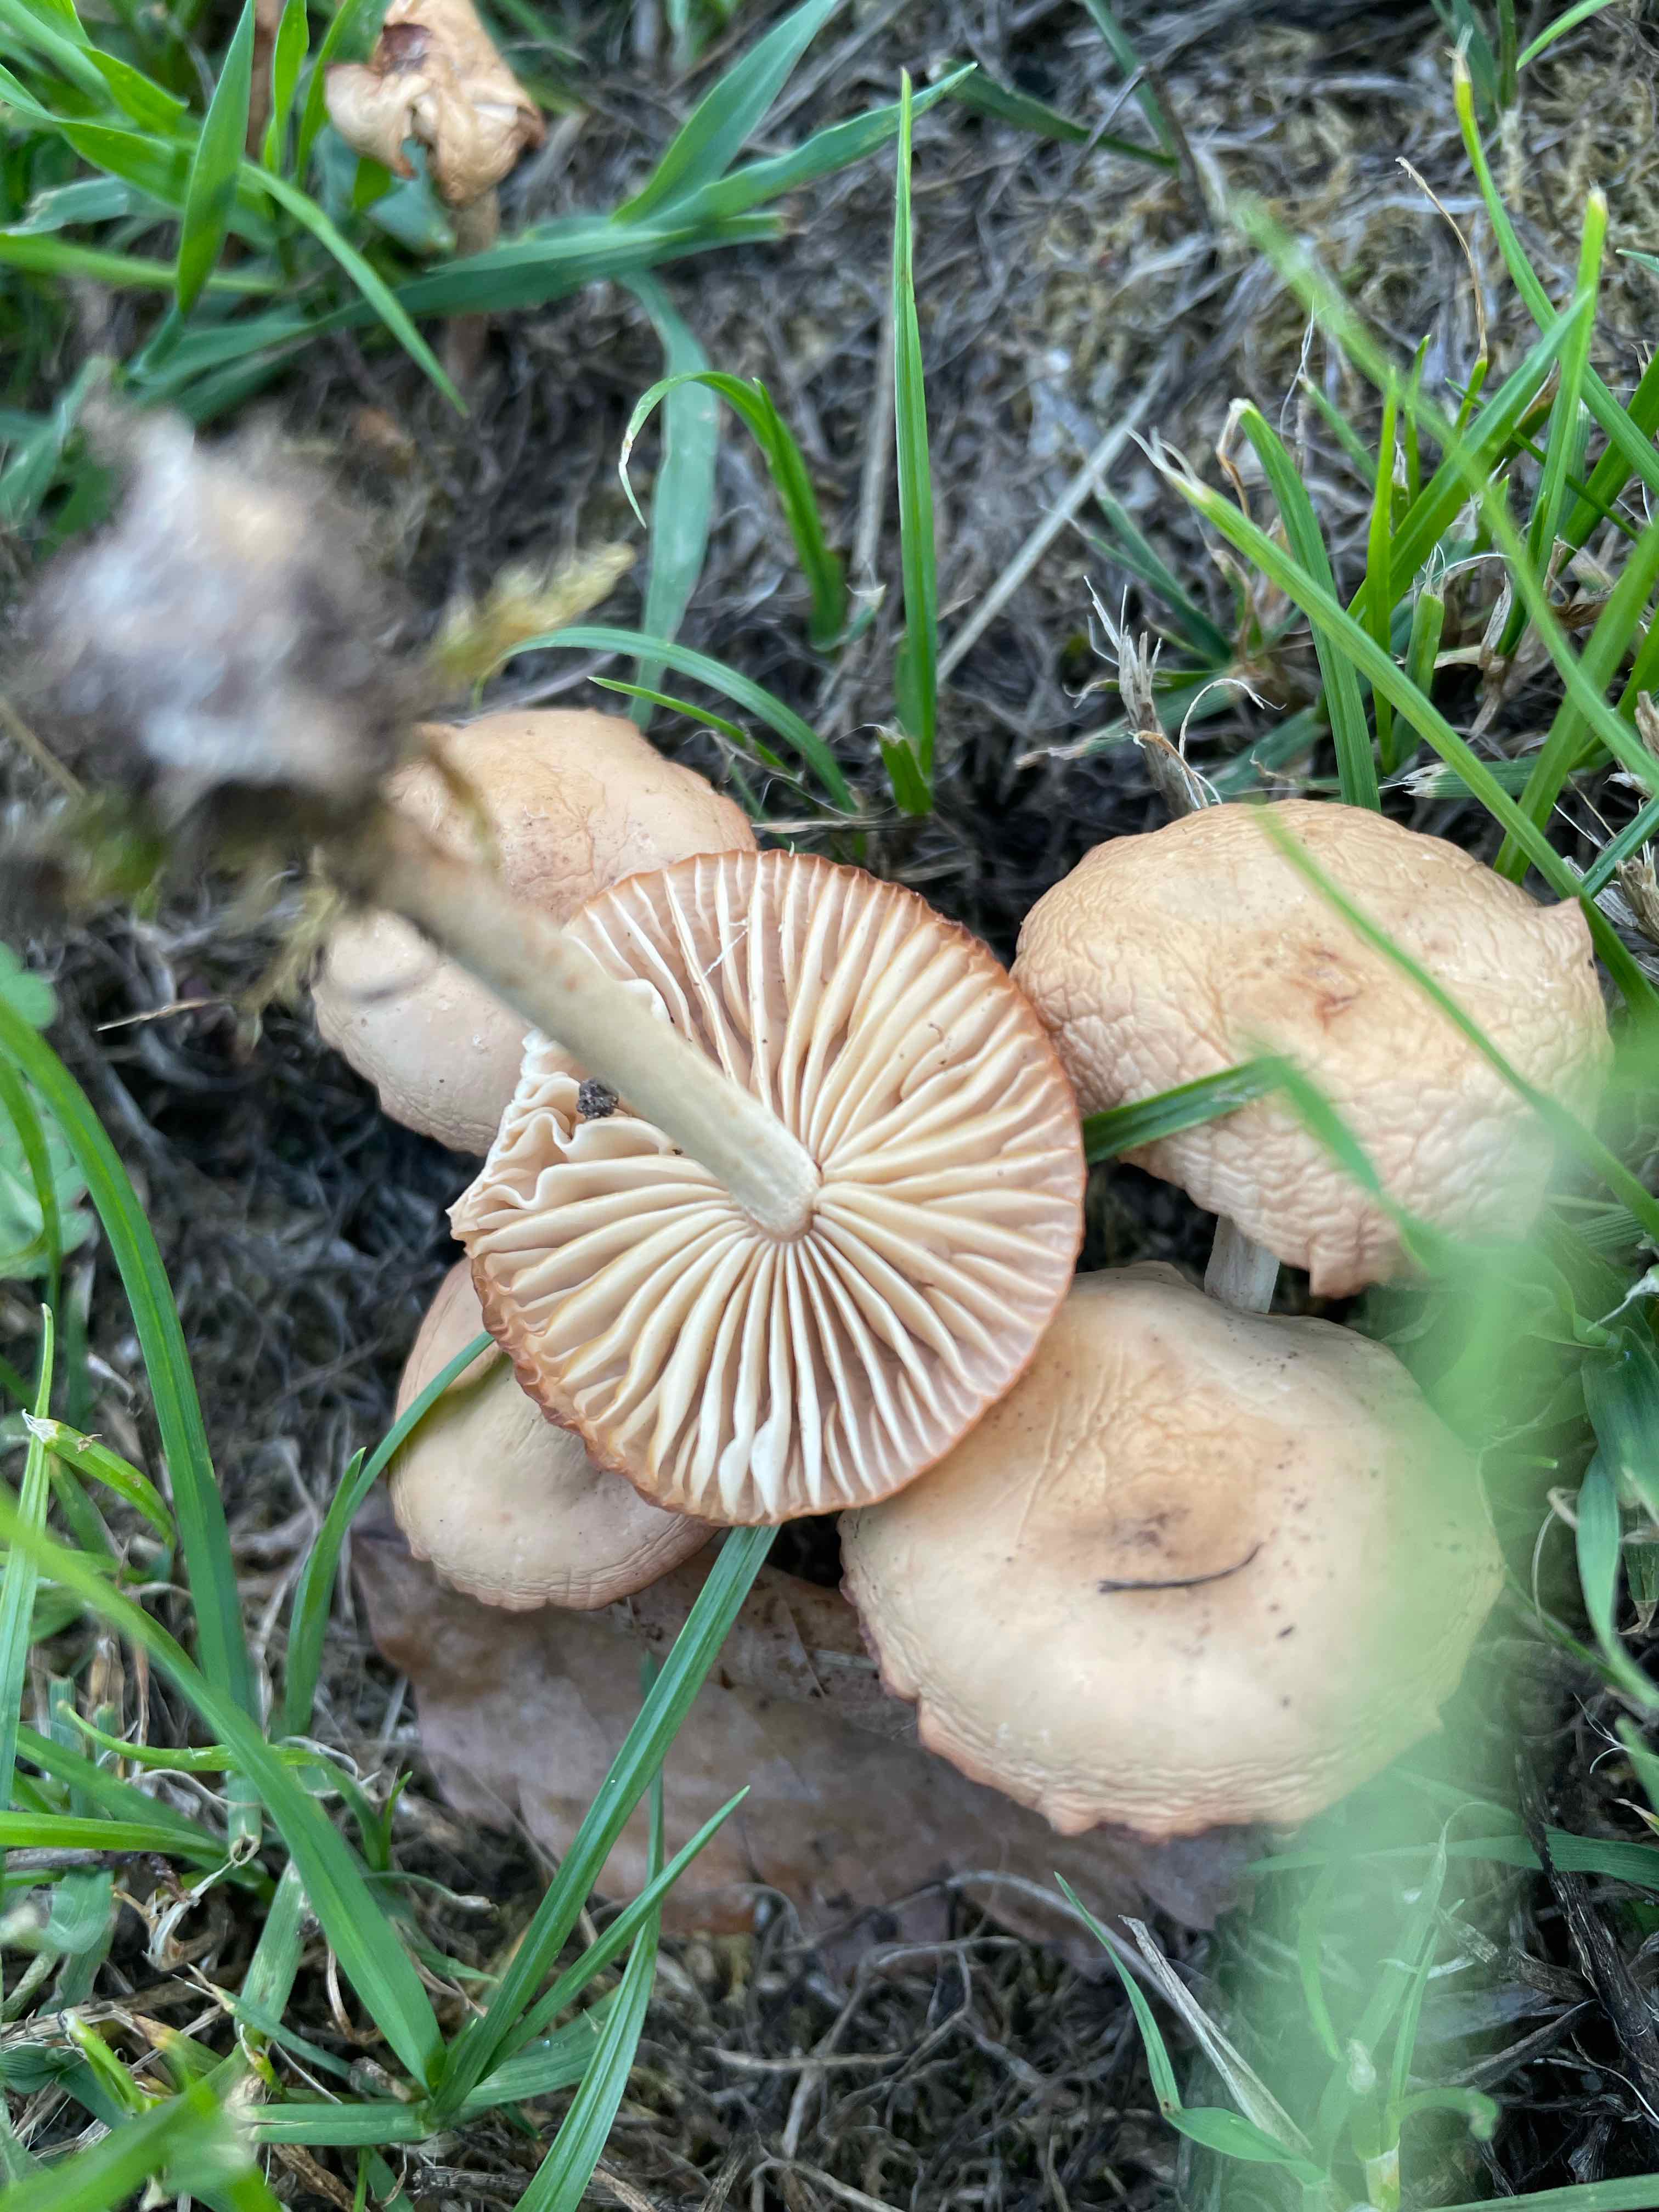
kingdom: Fungi
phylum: Basidiomycota
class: Agaricomycetes
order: Agaricales
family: Marasmiaceae
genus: Marasmius
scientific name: Marasmius oreades
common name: elledans-bruskhat
